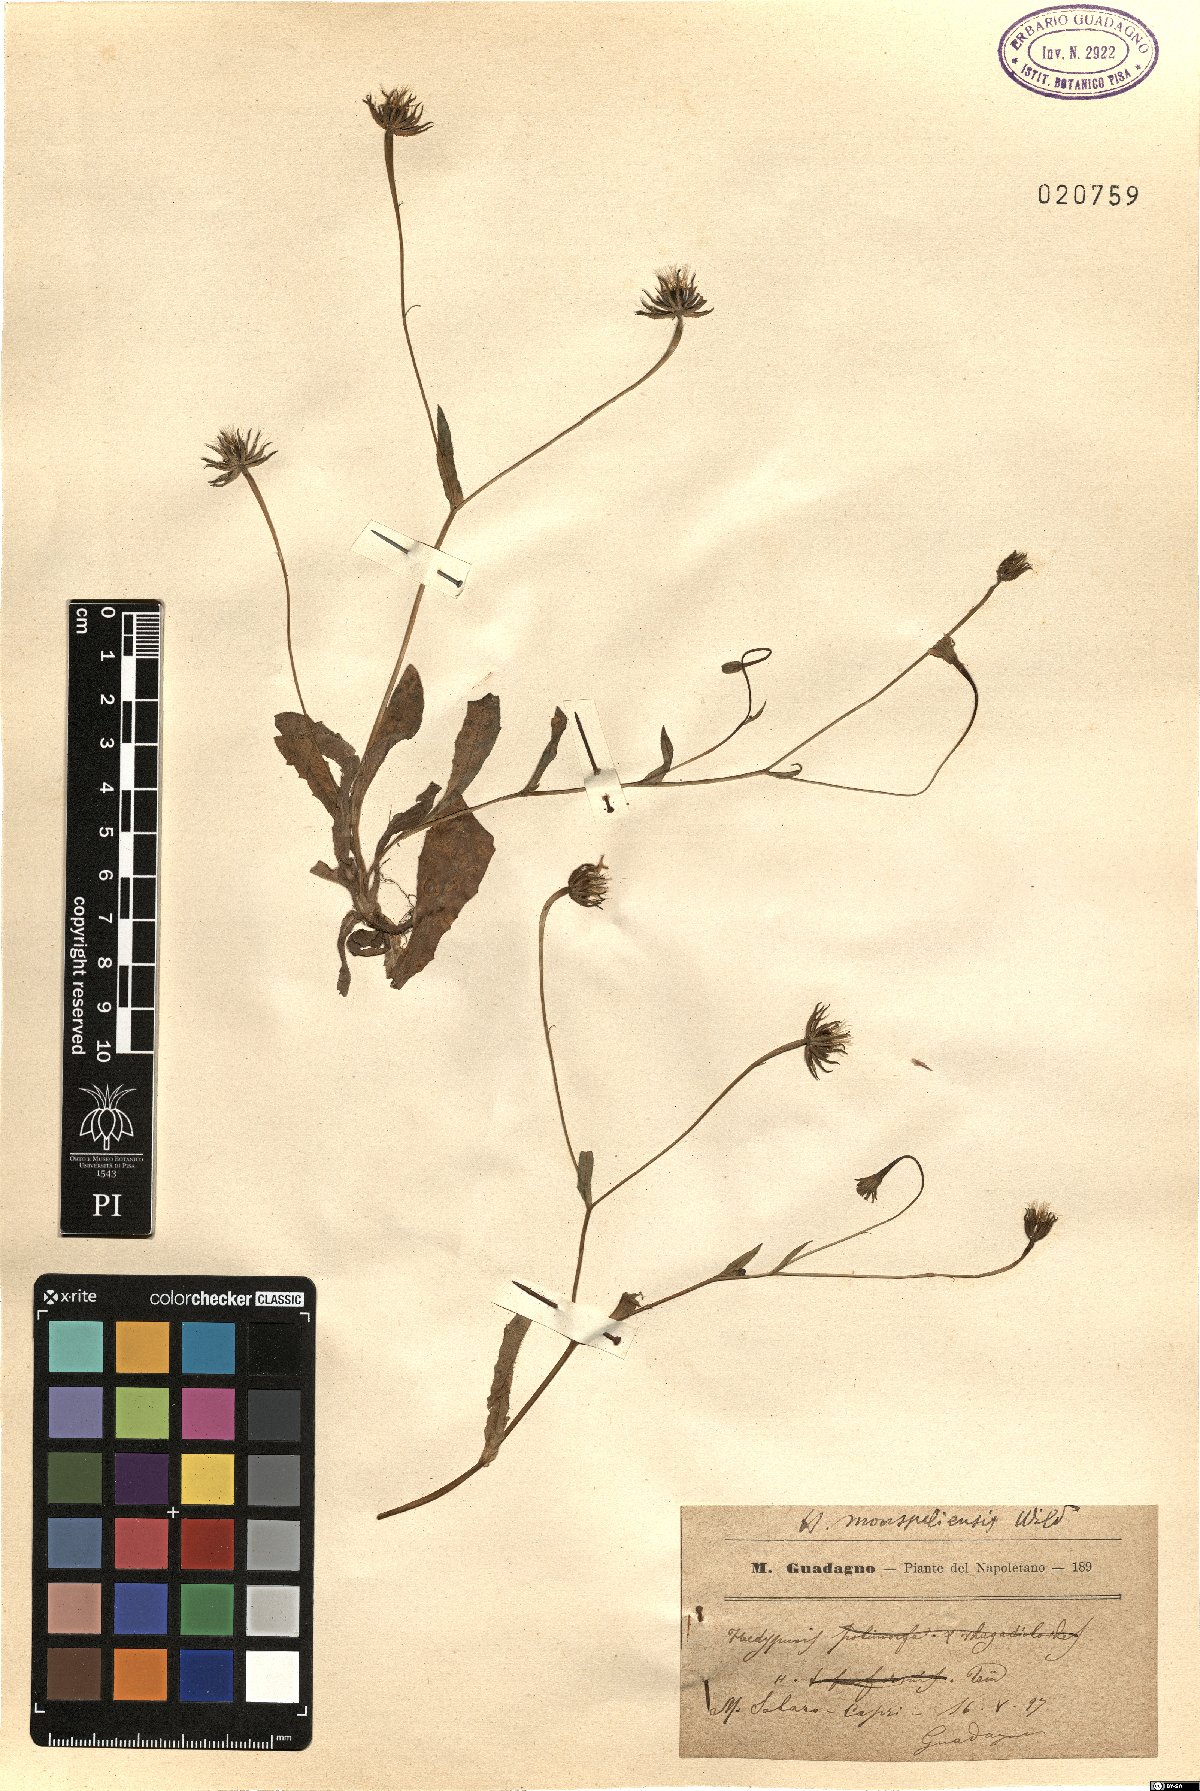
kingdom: Plantae
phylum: Tracheophyta
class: Magnoliopsida
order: Asterales
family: Asteraceae
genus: Hedypnois
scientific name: Hedypnois rhagadioloides
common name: Cretan weed
